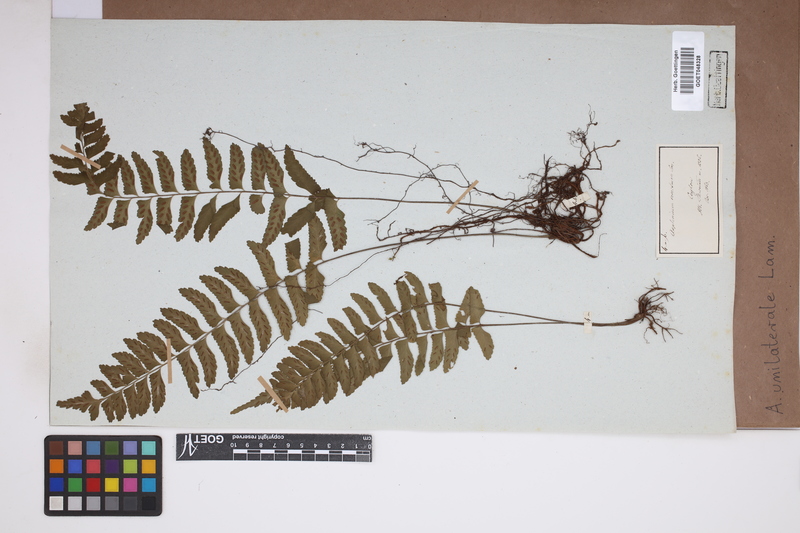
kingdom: Plantae
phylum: Tracheophyta
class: Polypodiopsida
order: Polypodiales
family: Aspleniaceae
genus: Hymenasplenium
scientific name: Hymenasplenium unilaterale
